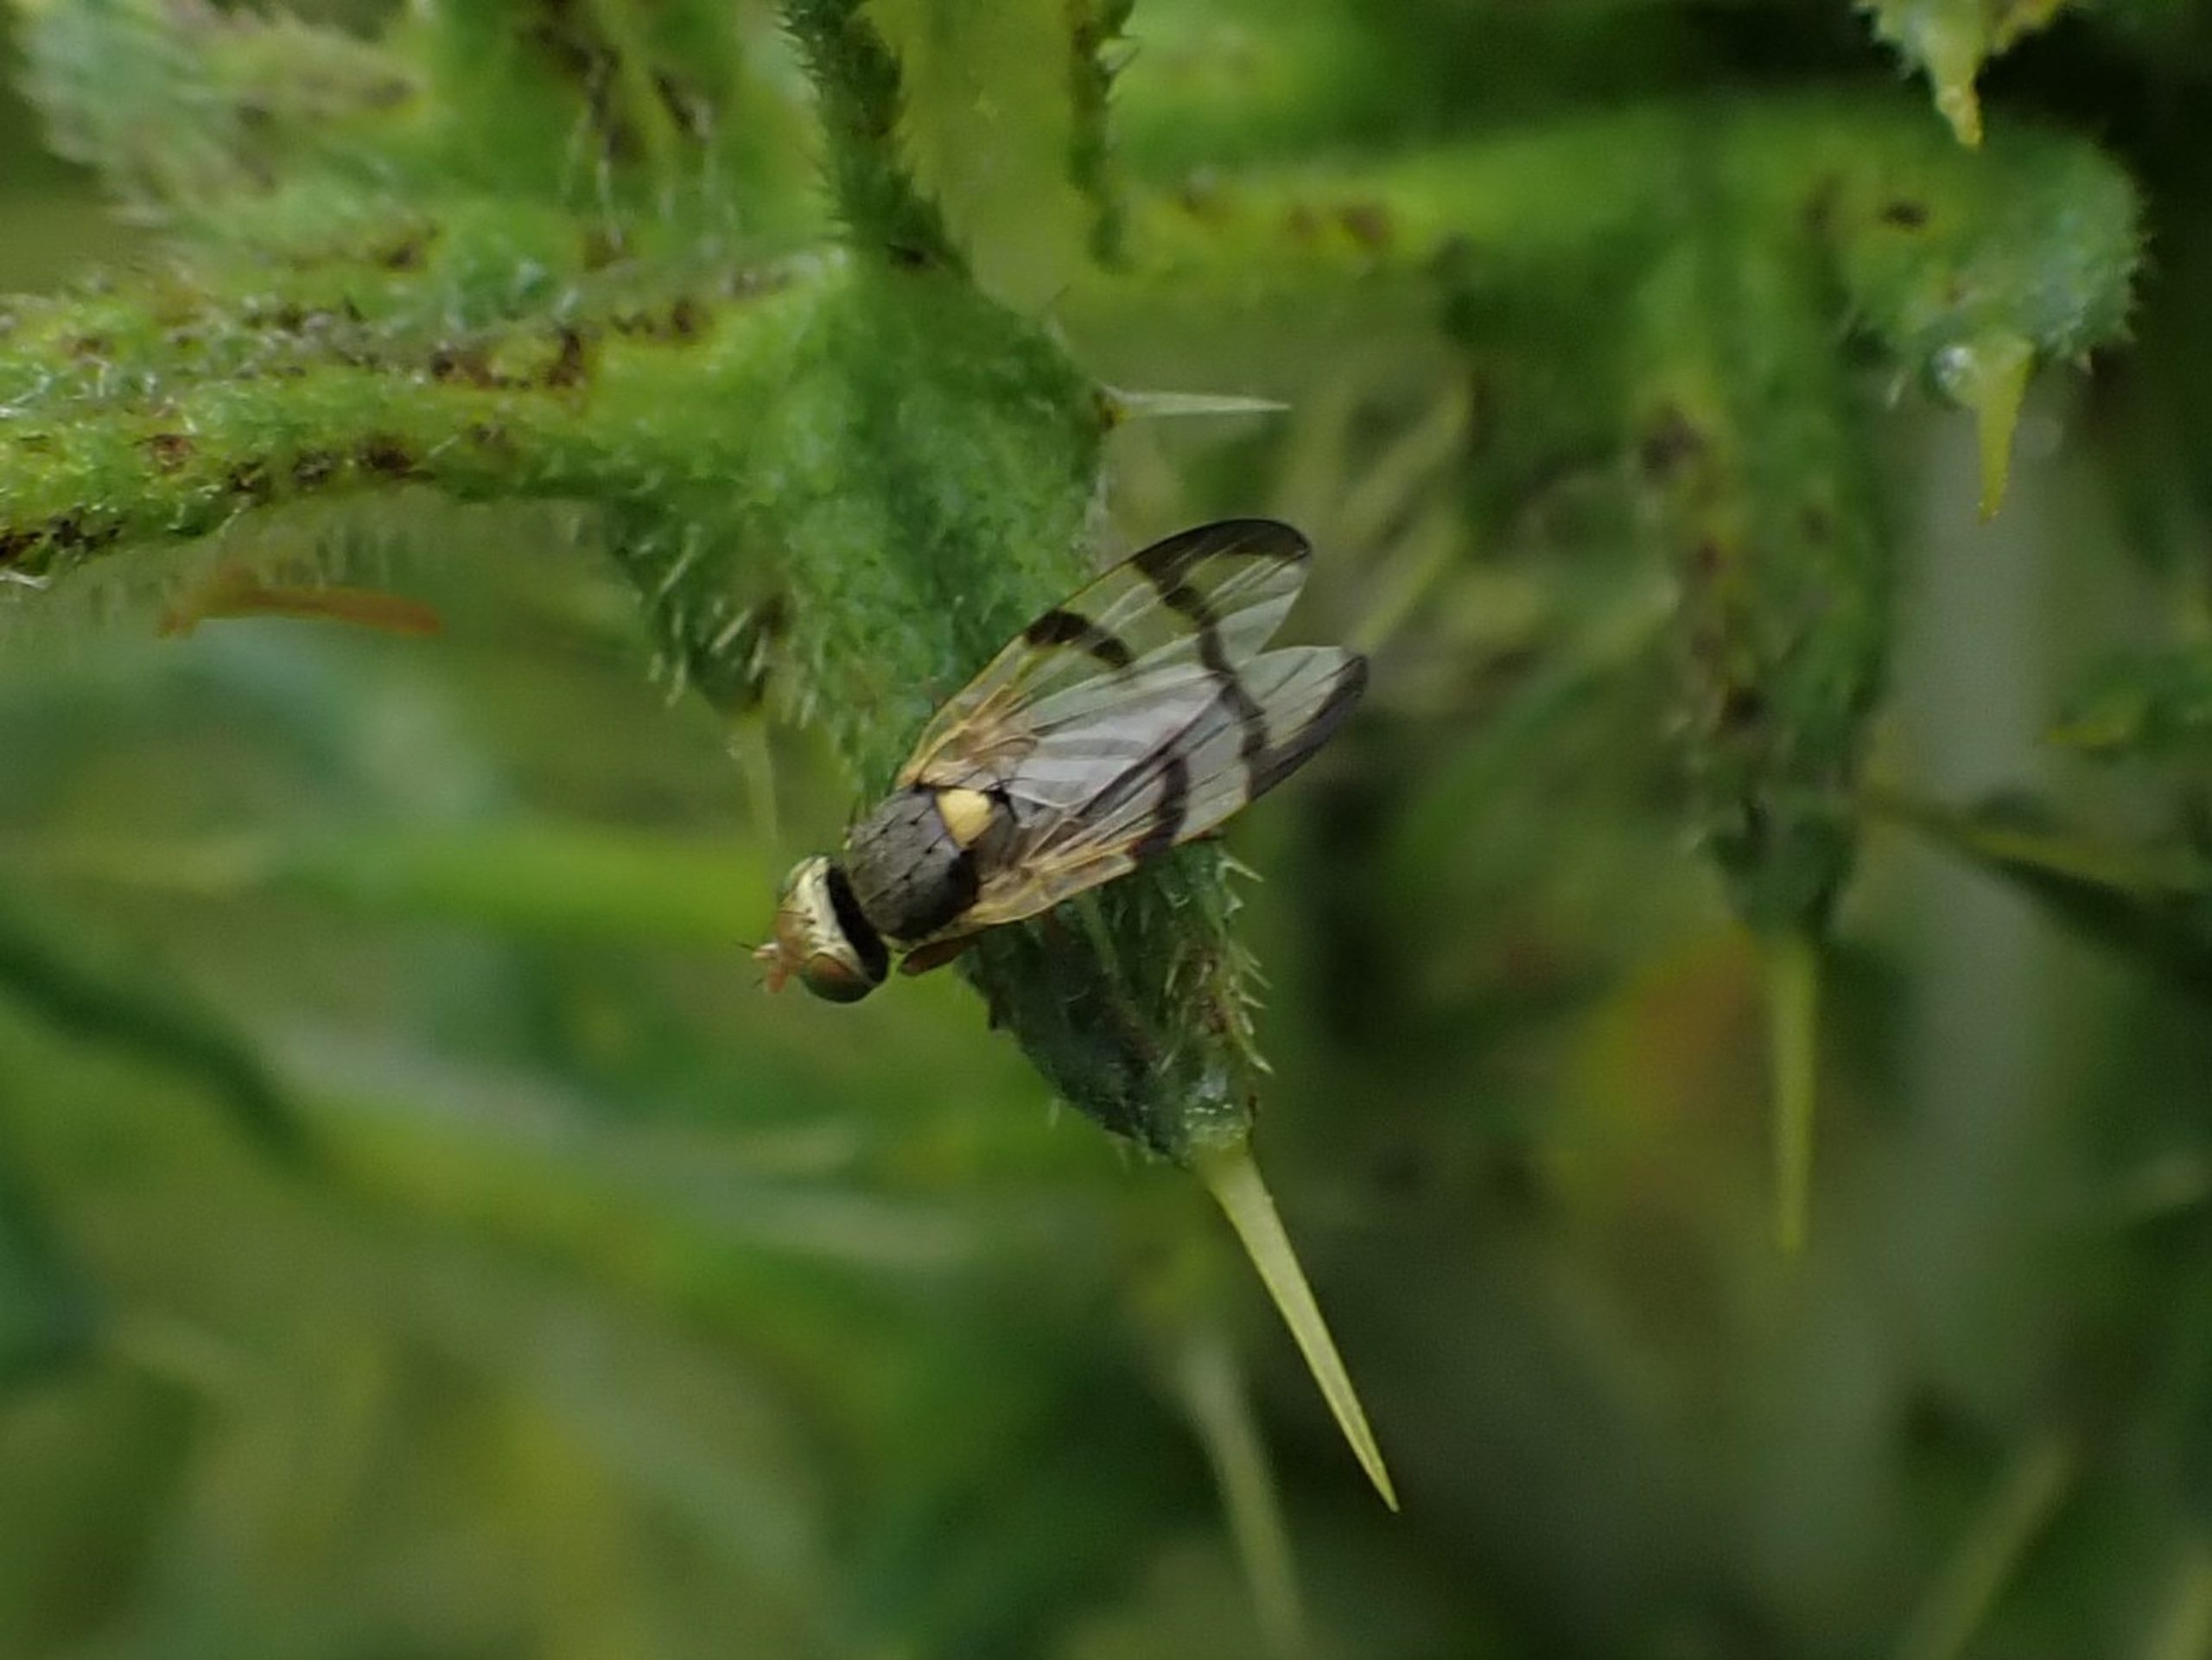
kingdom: Animalia
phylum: Arthropoda
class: Insecta
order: Diptera
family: Tephritidae
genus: Urophora
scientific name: Urophora stylata
